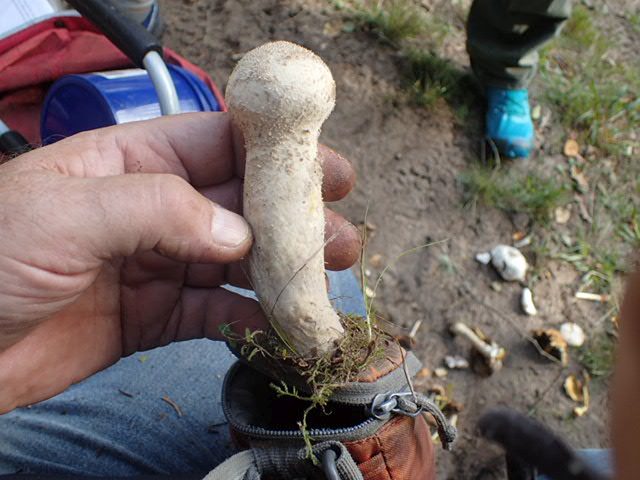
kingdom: Fungi
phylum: Basidiomycota
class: Agaricomycetes
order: Agaricales
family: Lycoperdaceae
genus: Lycoperdon
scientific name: Lycoperdon excipuliforme
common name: højstokket støvbold
